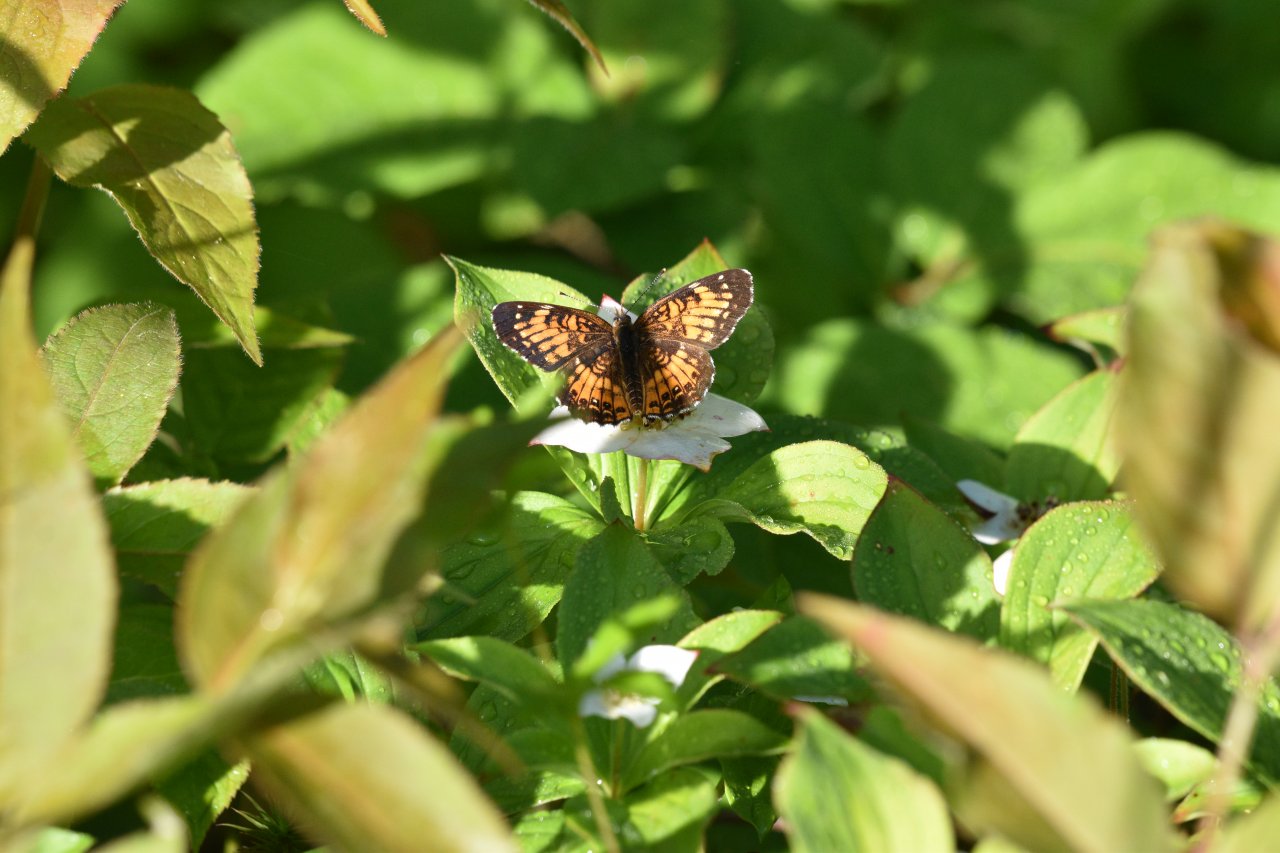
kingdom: Animalia
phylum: Arthropoda
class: Insecta
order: Lepidoptera
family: Nymphalidae
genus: Chlosyne
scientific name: Chlosyne harrisii
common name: Harris's Checkerspot
